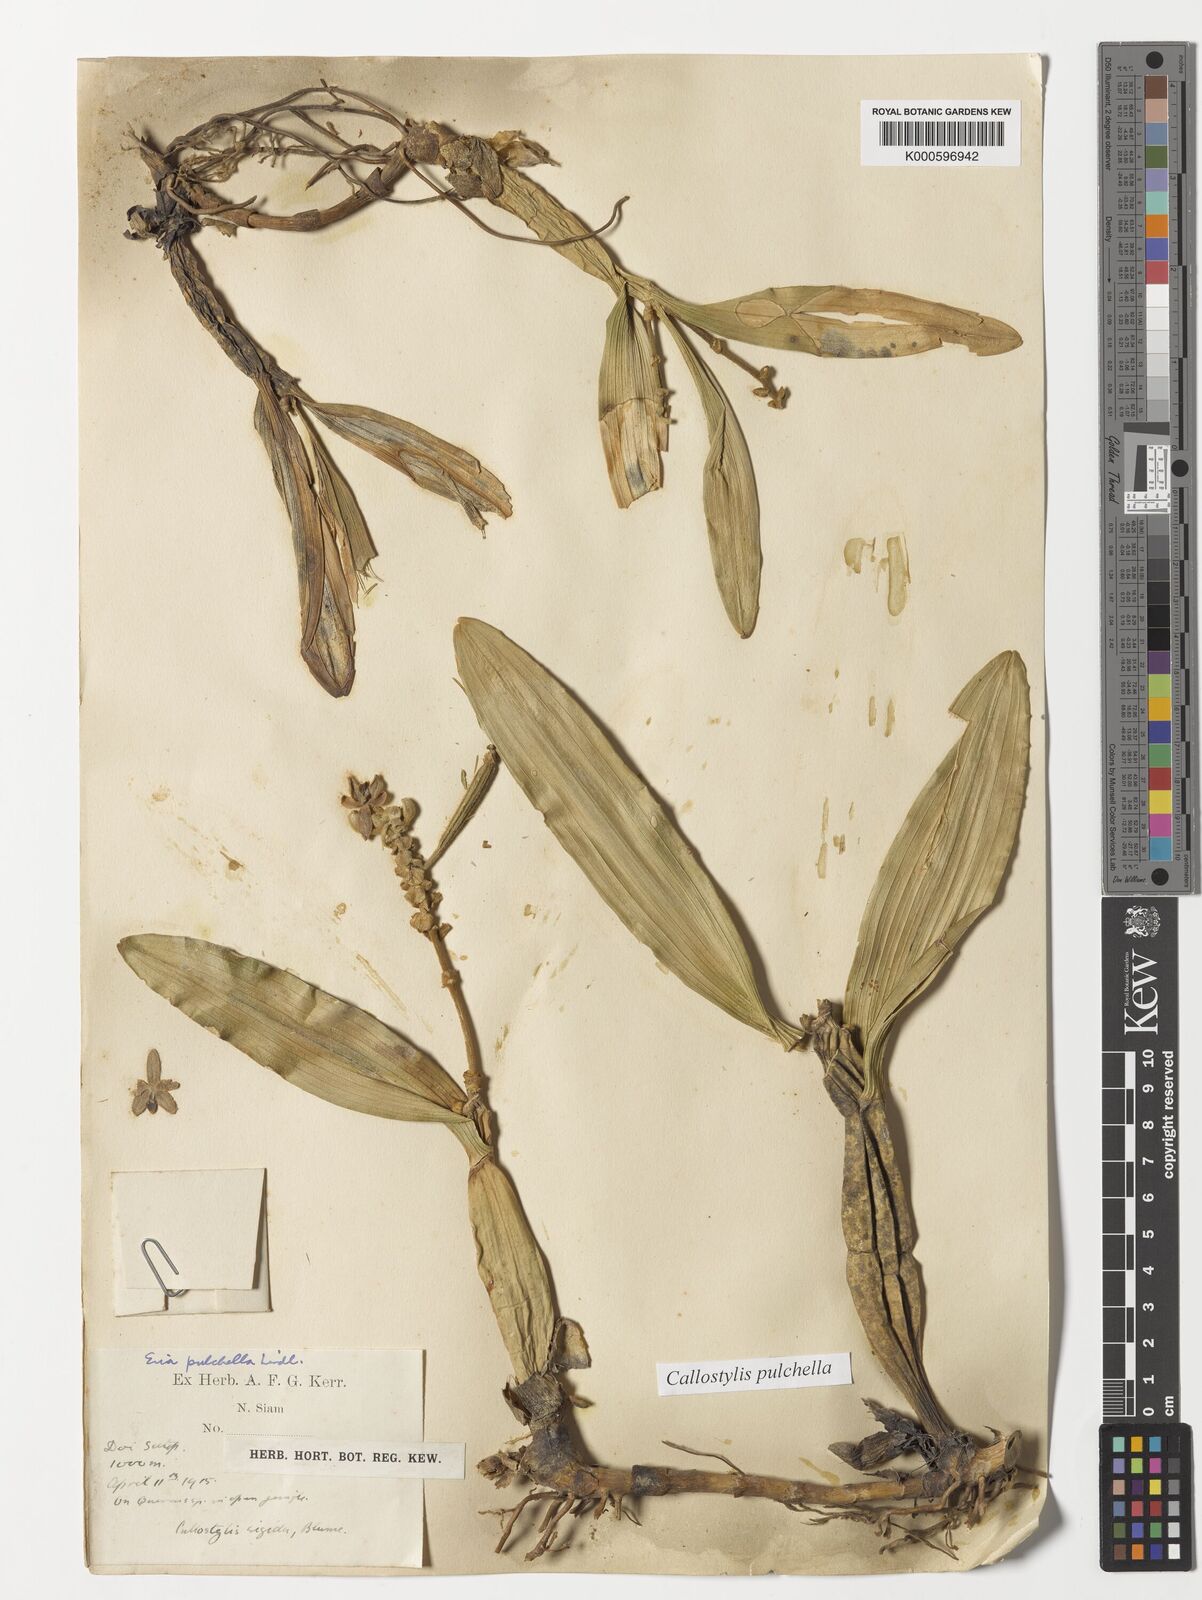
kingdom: Plantae
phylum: Tracheophyta
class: Liliopsida
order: Asparagales
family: Orchidaceae
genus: Callostylis
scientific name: Callostylis pulchella
